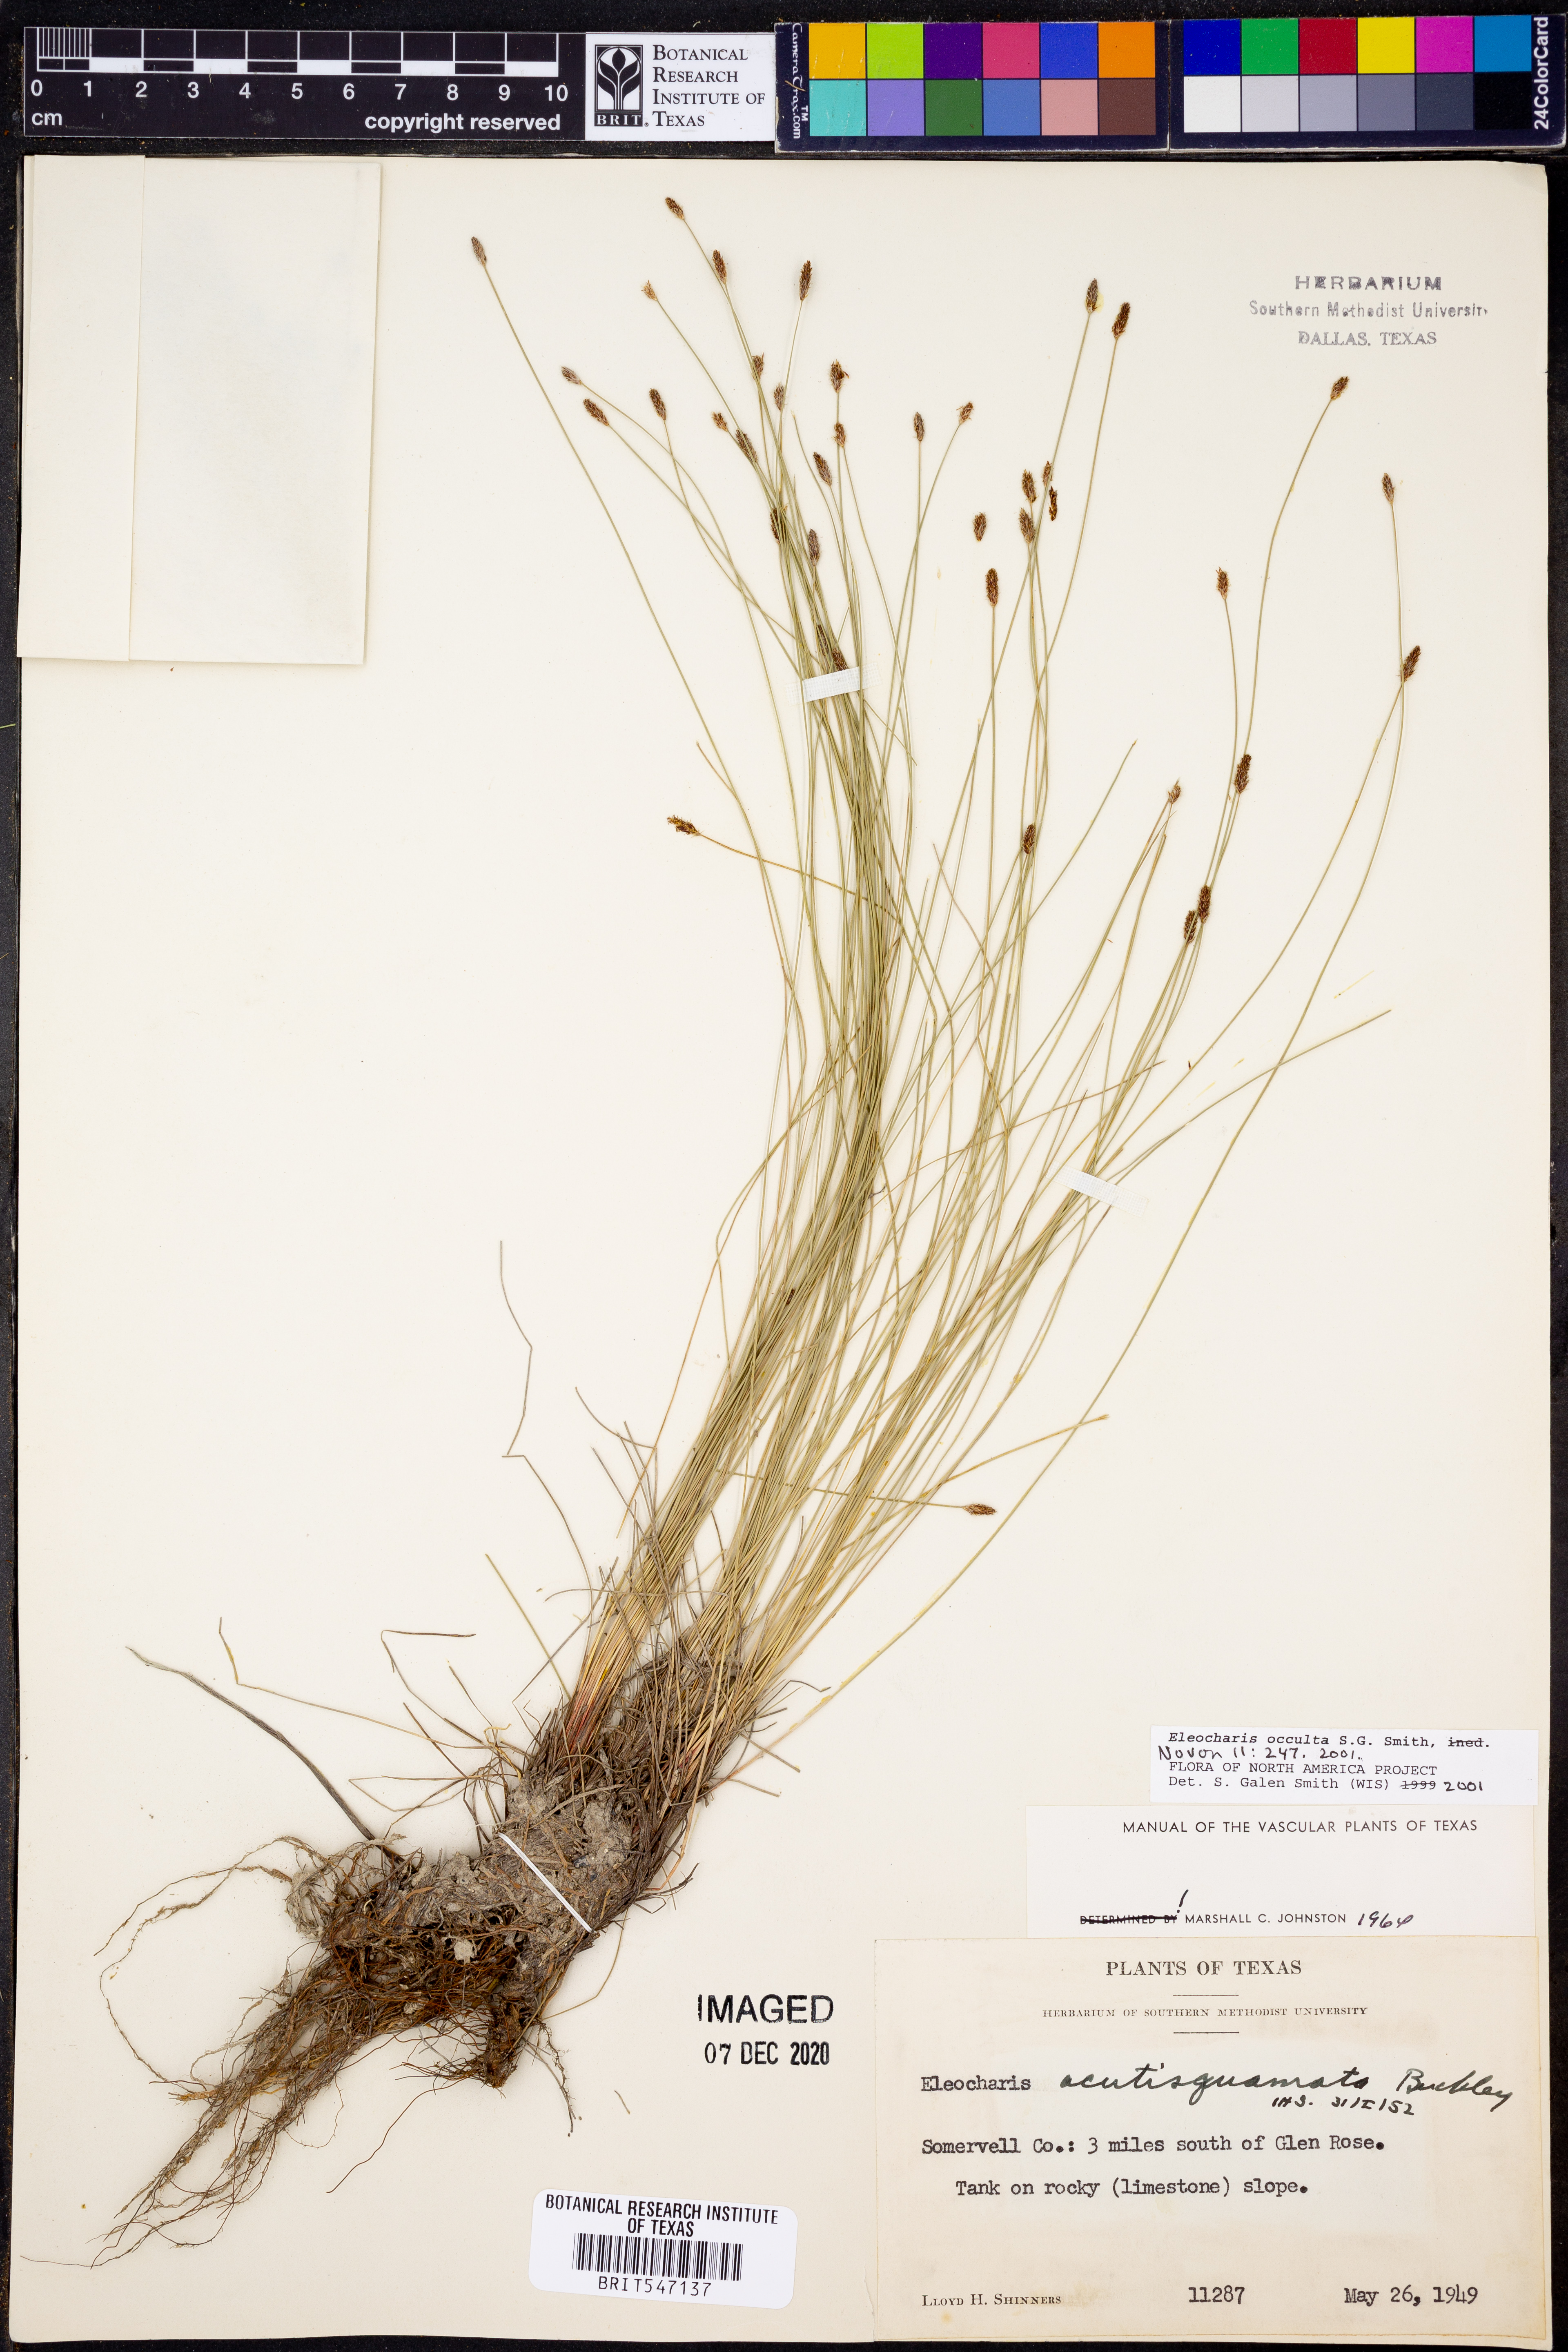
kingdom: Plantae
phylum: Tracheophyta
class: Liliopsida
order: Poales
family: Cyperaceae
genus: Eleocharis
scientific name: Eleocharis occulta
